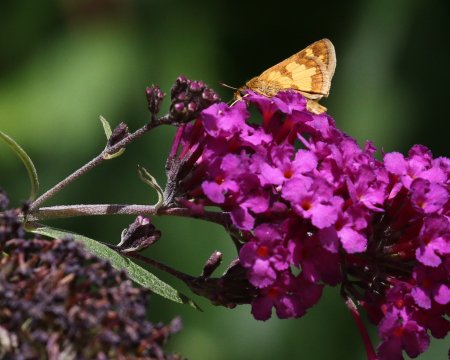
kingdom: Animalia
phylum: Arthropoda
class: Insecta
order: Lepidoptera
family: Hesperiidae
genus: Polites
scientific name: Polites coras
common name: Peck's Skipper
